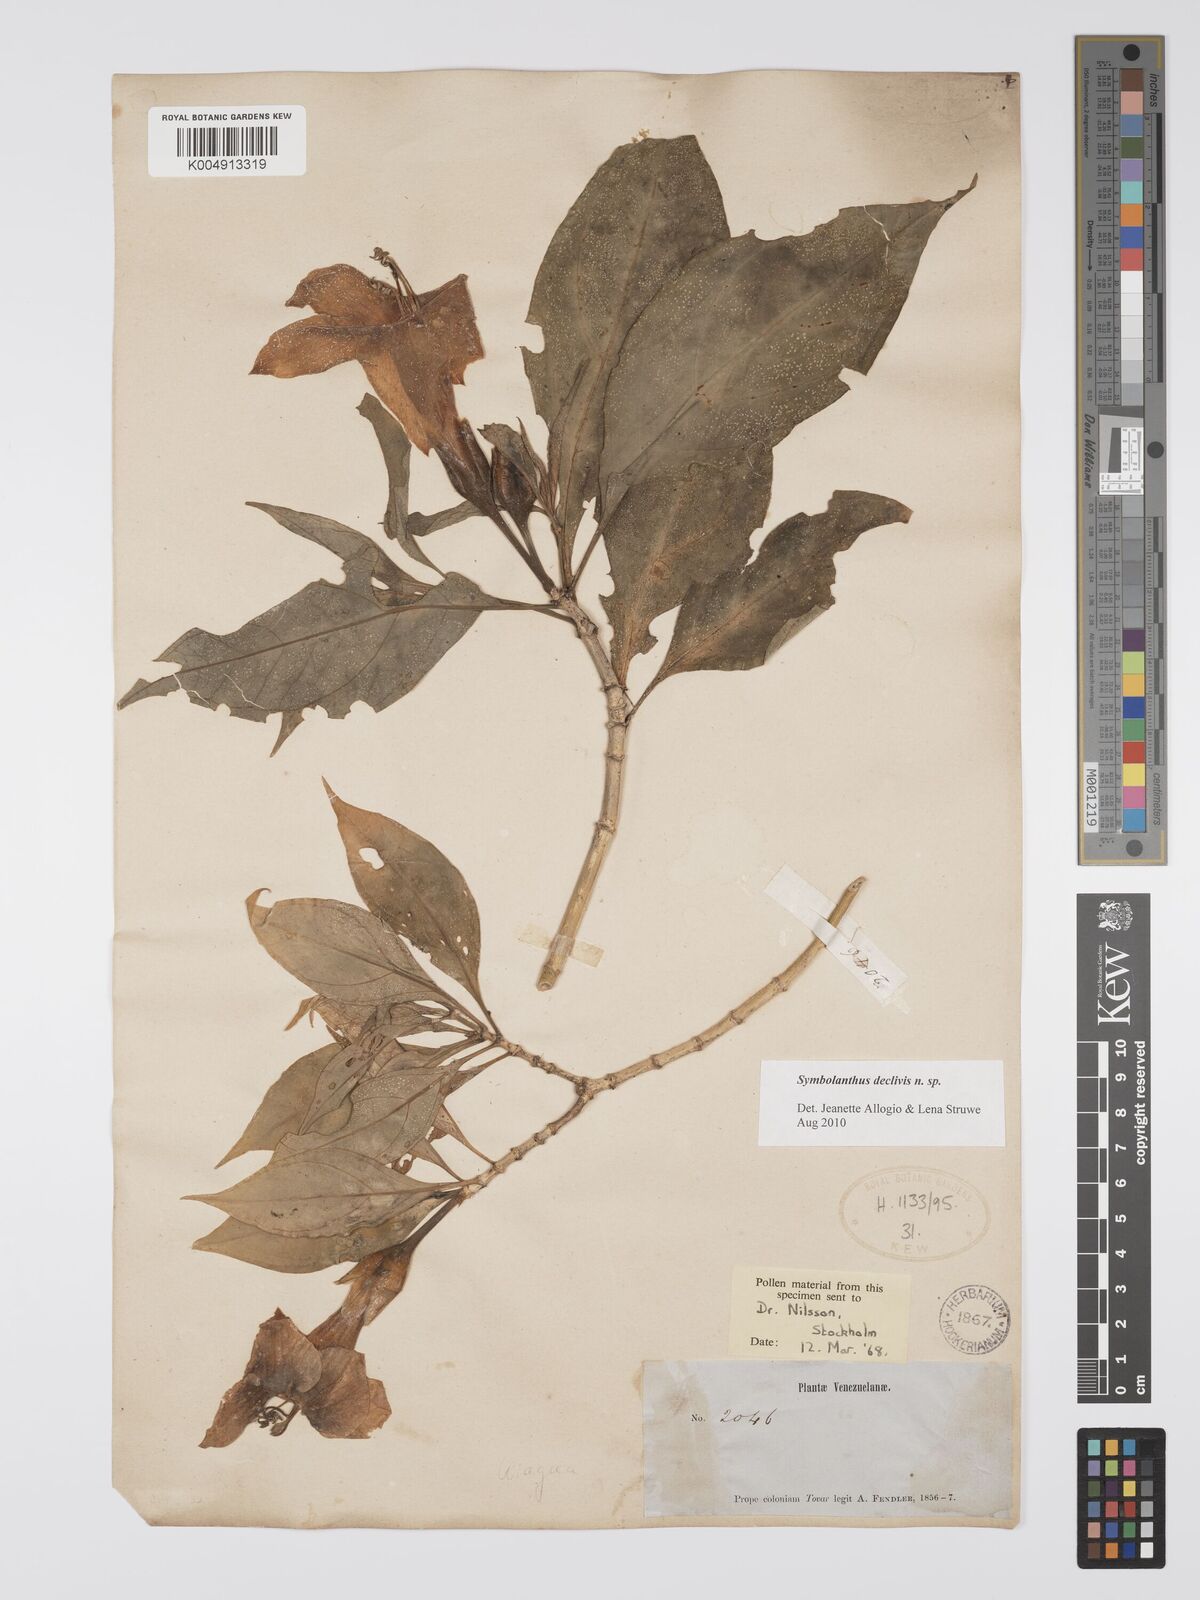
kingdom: Plantae
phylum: Tracheophyta
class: Magnoliopsida
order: Gentianales
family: Gentianaceae
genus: Symbolanthus
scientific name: Symbolanthus
